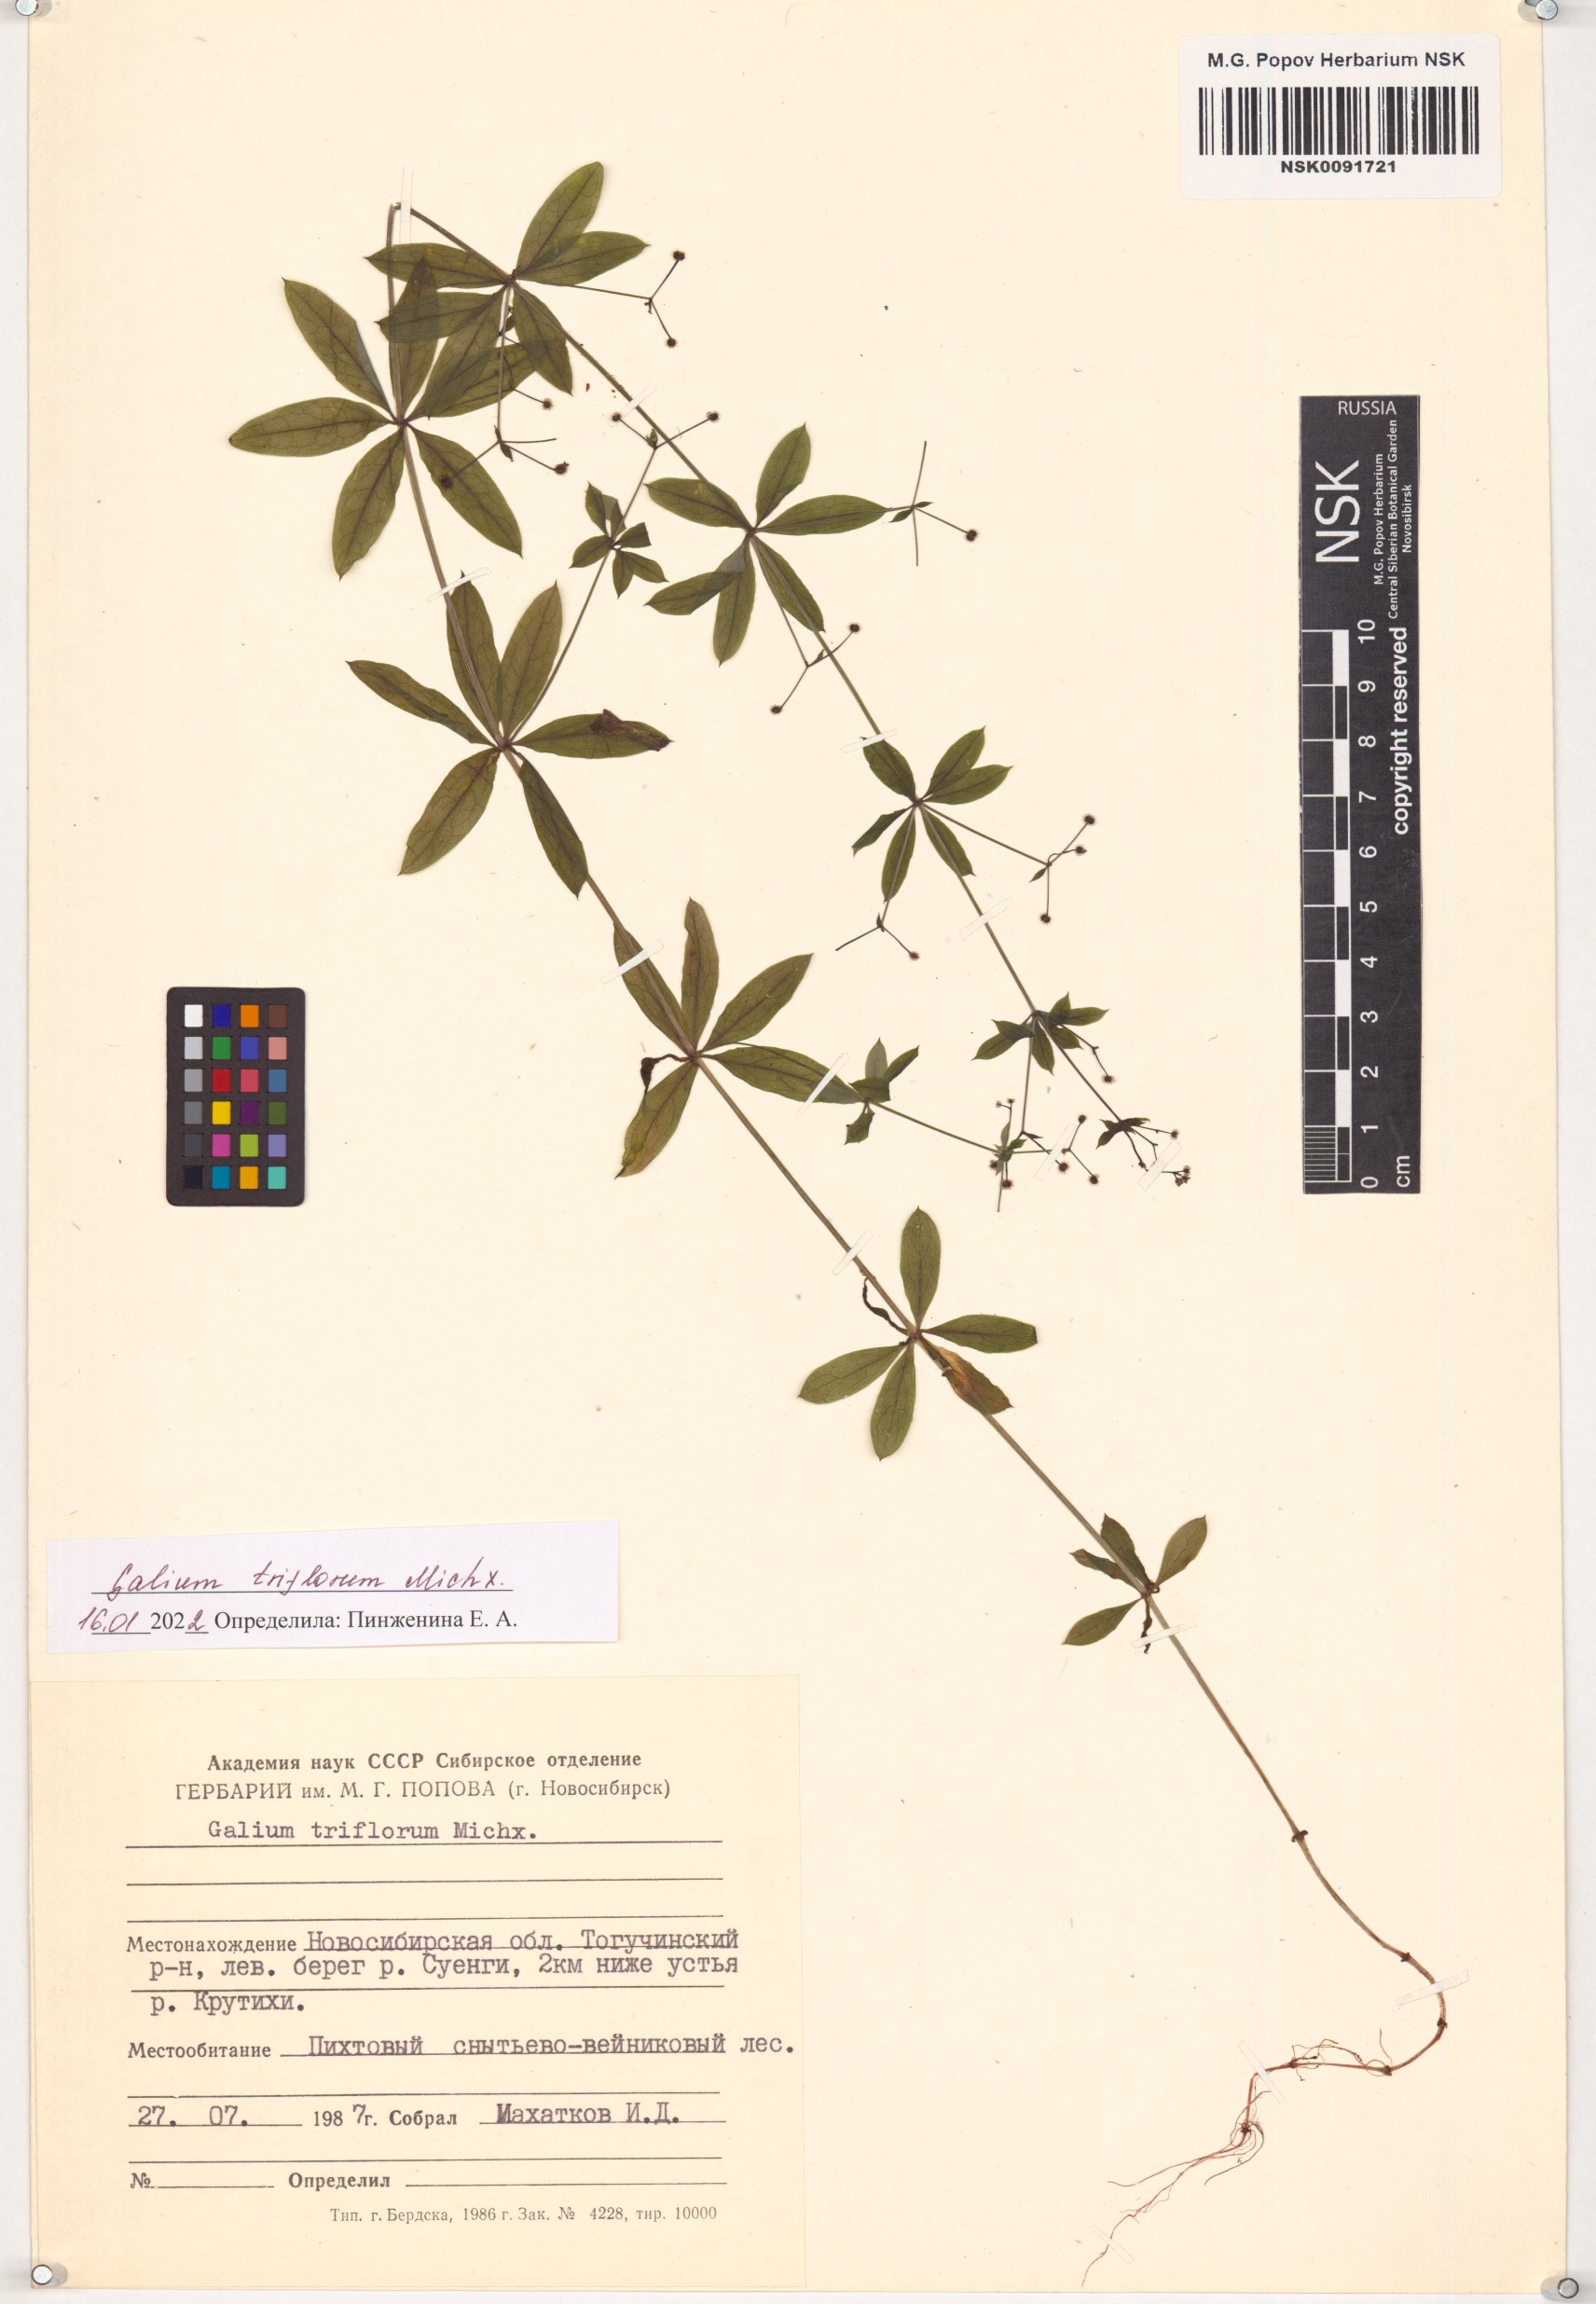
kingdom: Plantae
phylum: Tracheophyta
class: Magnoliopsida
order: Gentianales
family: Rubiaceae
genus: Galium
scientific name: Galium triflorum
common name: Fragrant bedstraw
